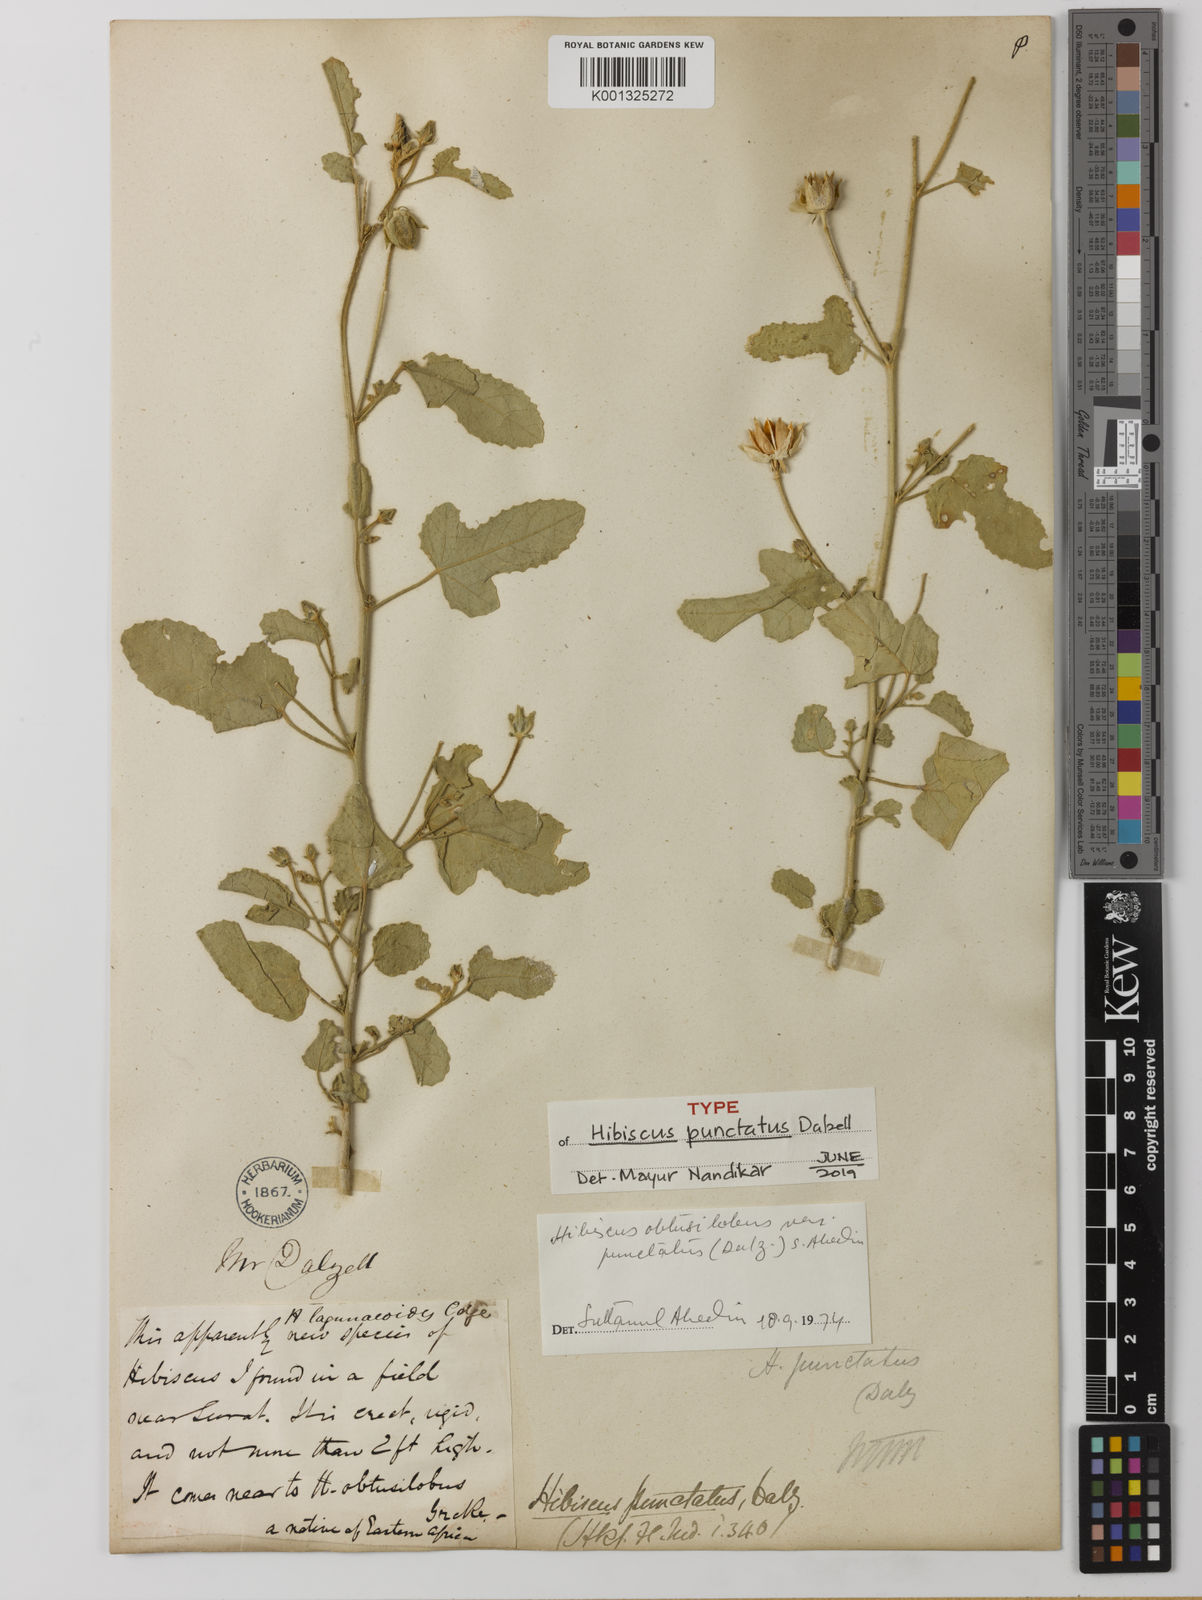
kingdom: Plantae
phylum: Tracheophyta
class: Magnoliopsida
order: Malvales
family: Malvaceae
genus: Hibiscus
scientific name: Hibiscus obtusilobus
